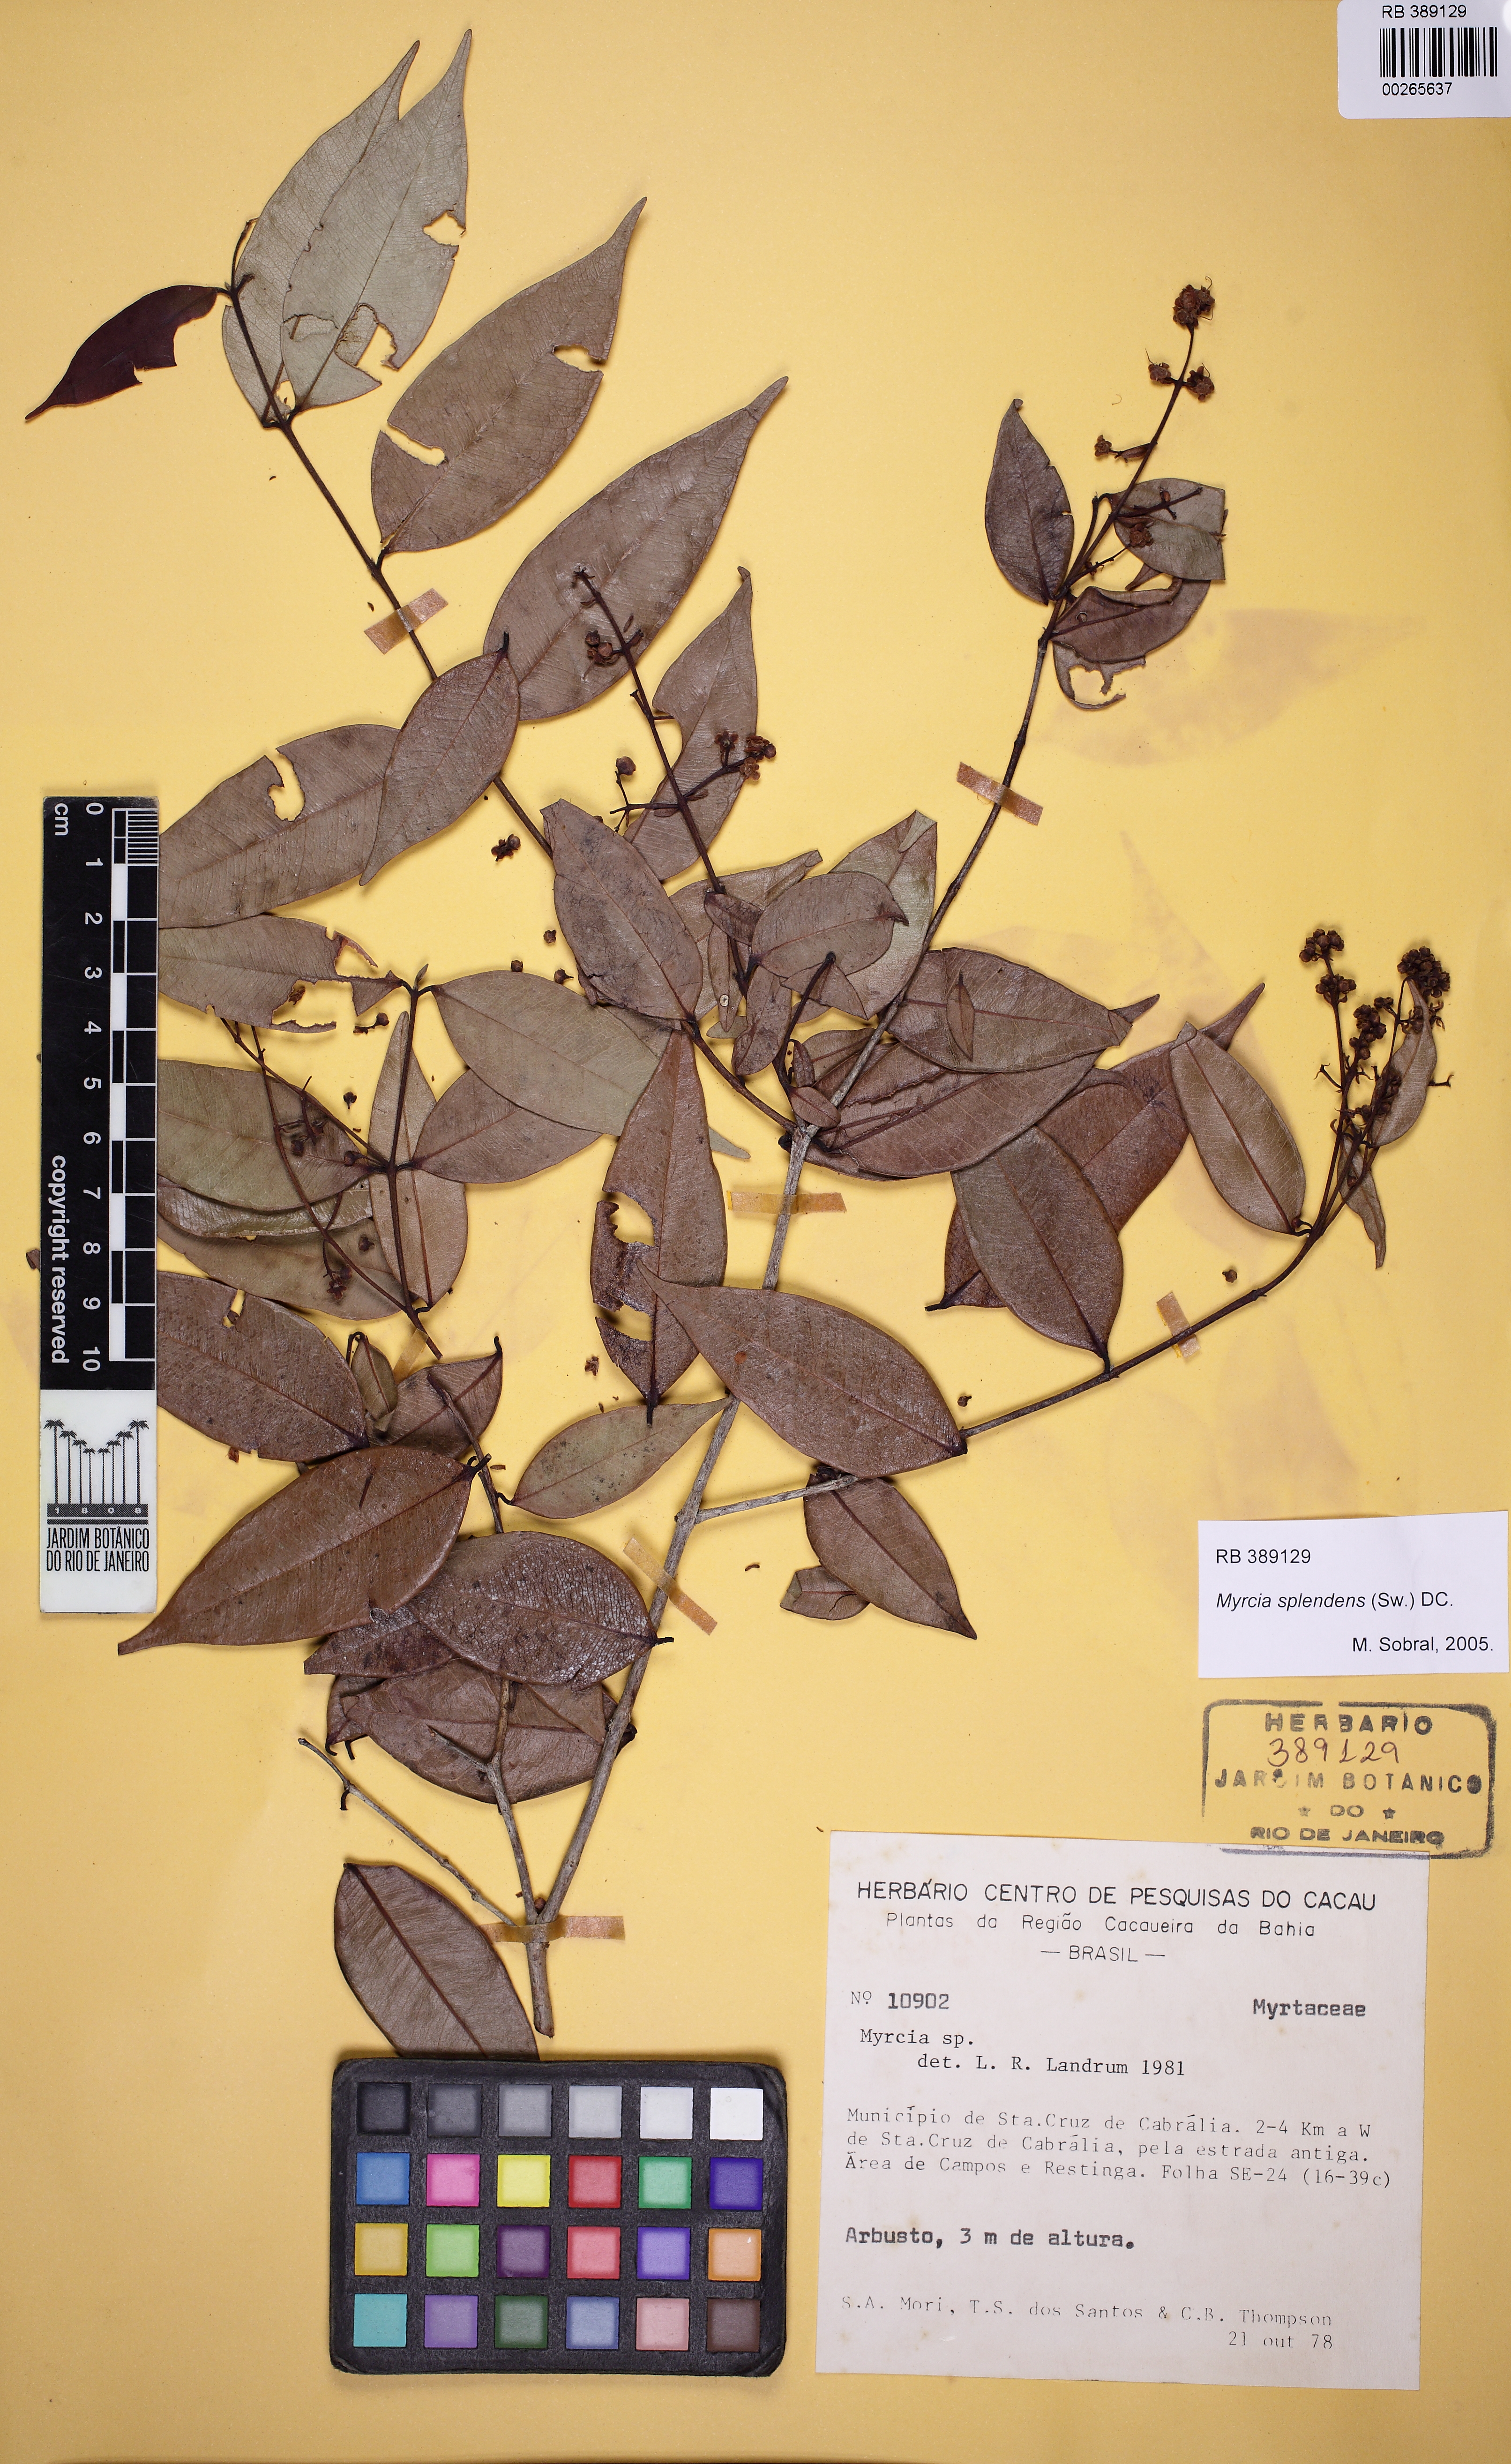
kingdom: Plantae
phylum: Tracheophyta
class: Magnoliopsida
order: Myrtales
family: Myrtaceae
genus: Myrcia
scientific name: Myrcia splendens
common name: Surinam cherry
